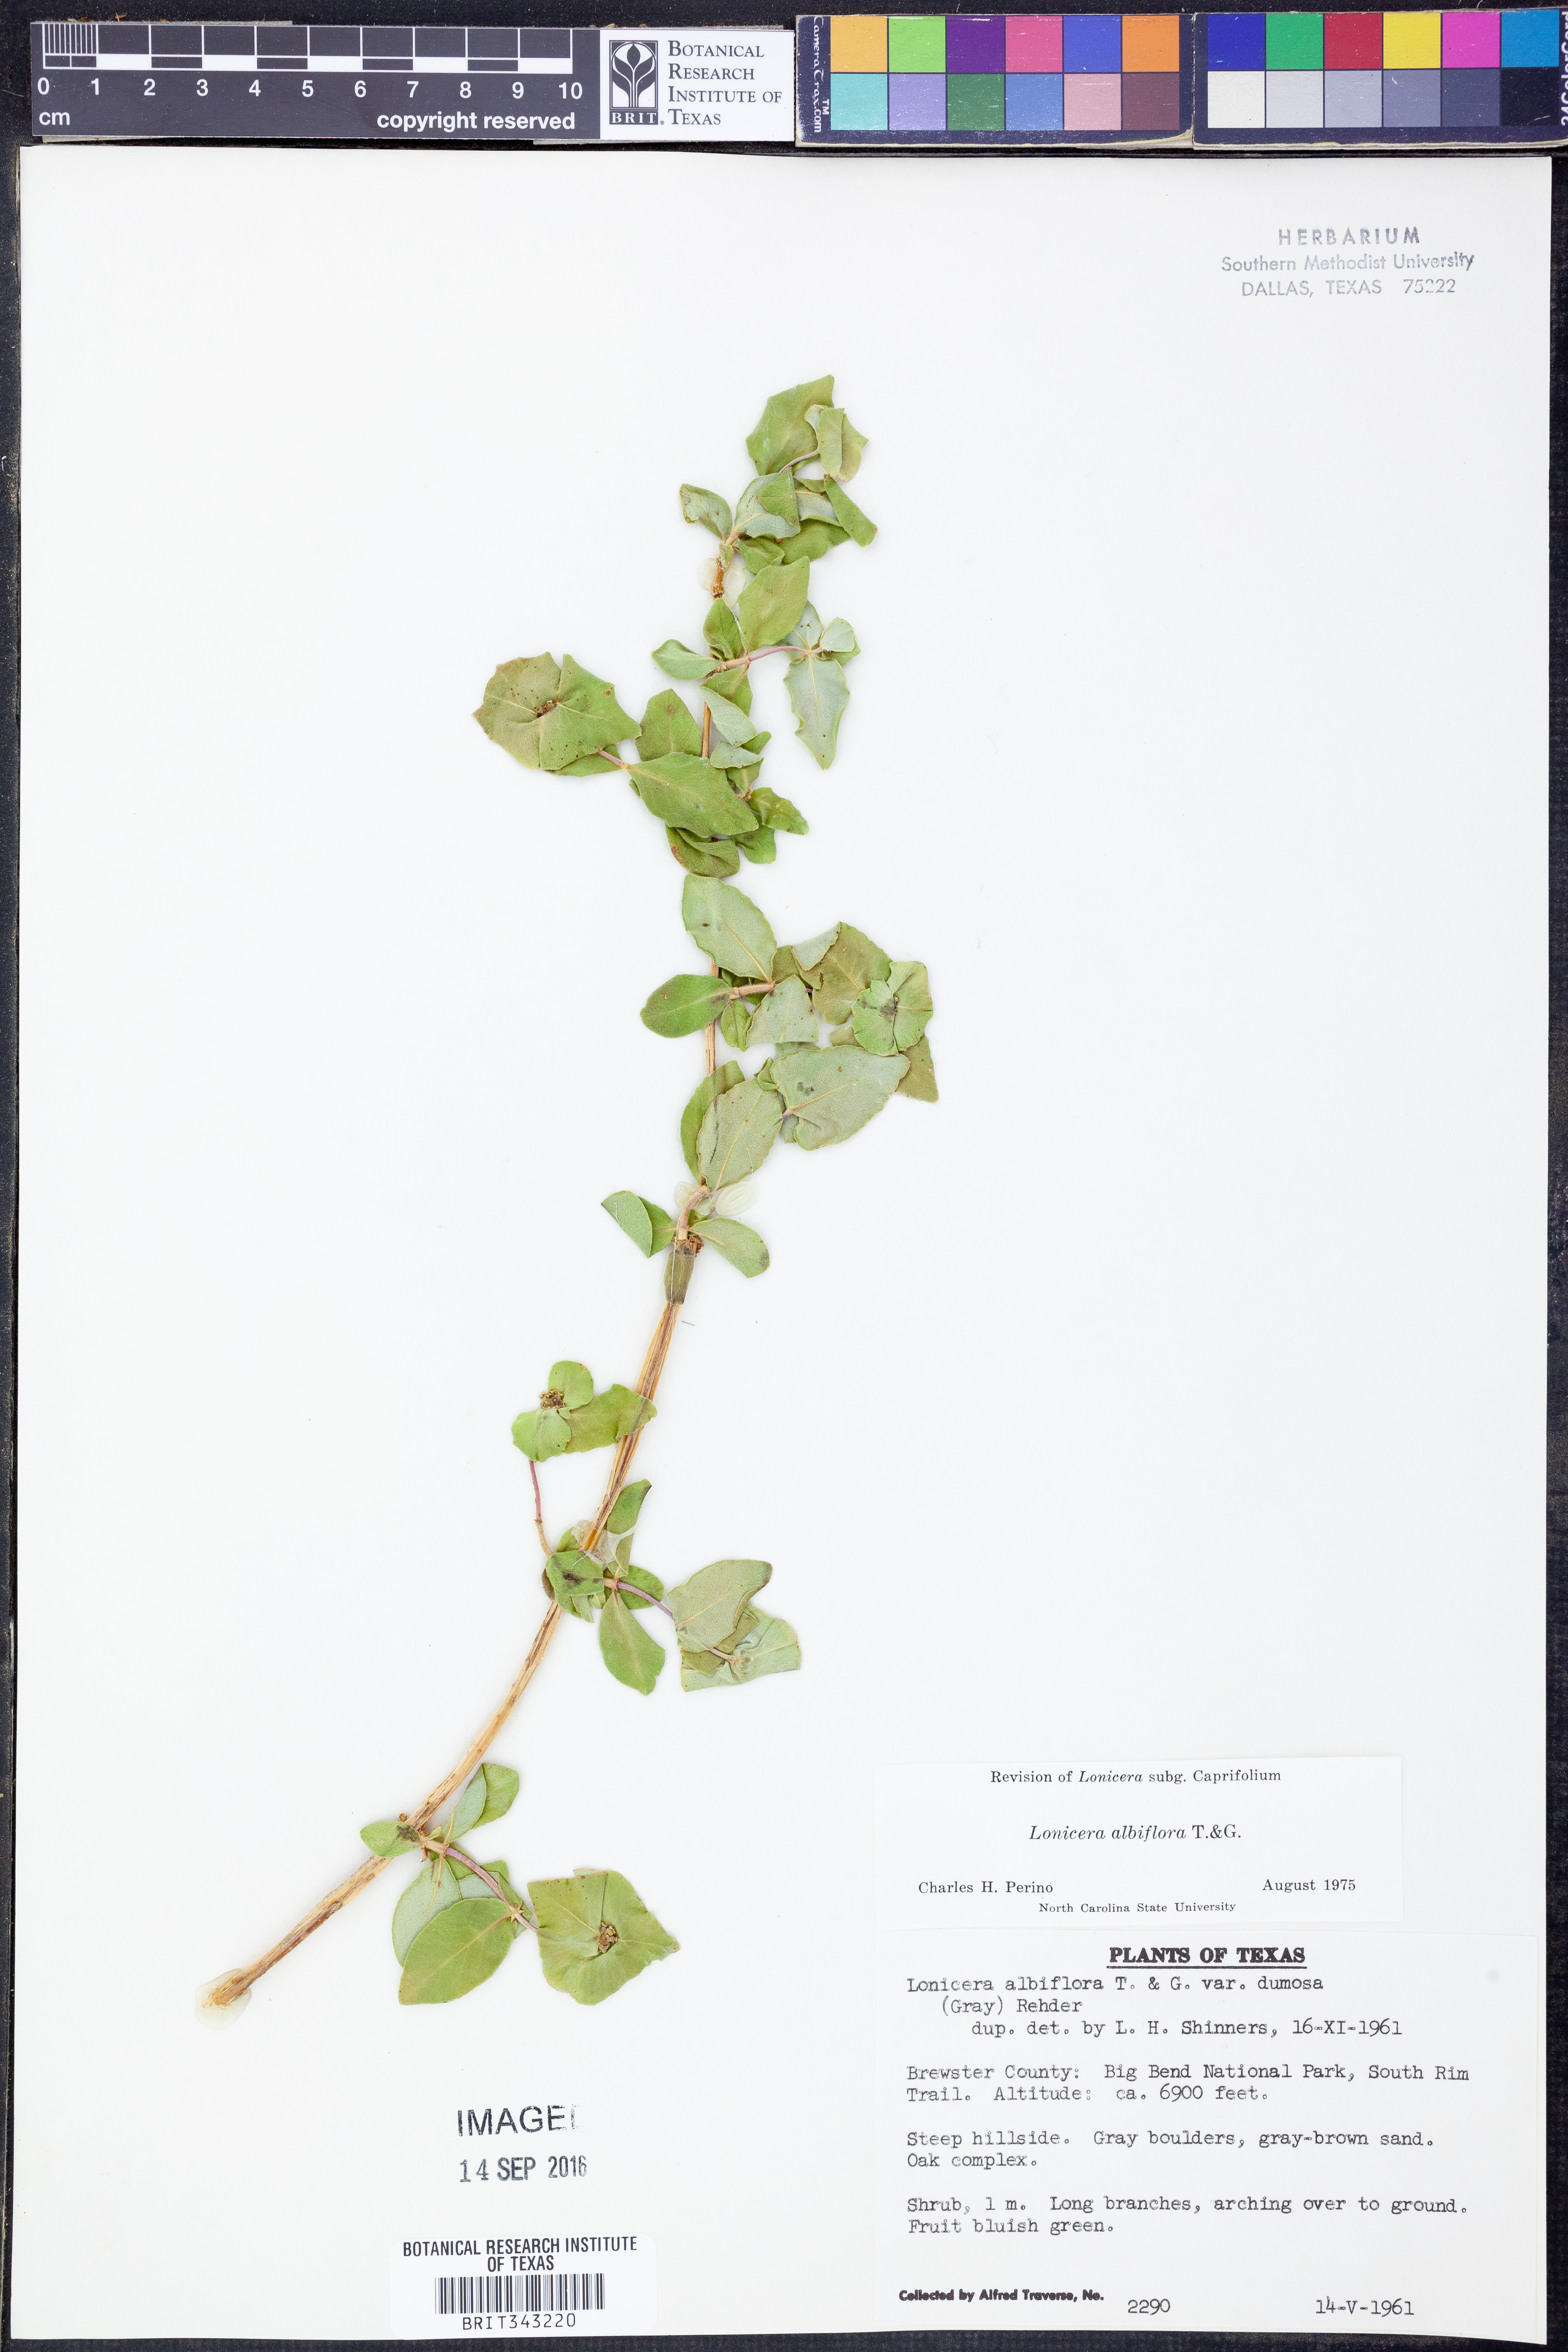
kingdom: Plantae
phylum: Tracheophyta
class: Magnoliopsida
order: Dipsacales
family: Caprifoliaceae
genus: Lonicera
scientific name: Lonicera albiflora
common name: White honeysuckle
